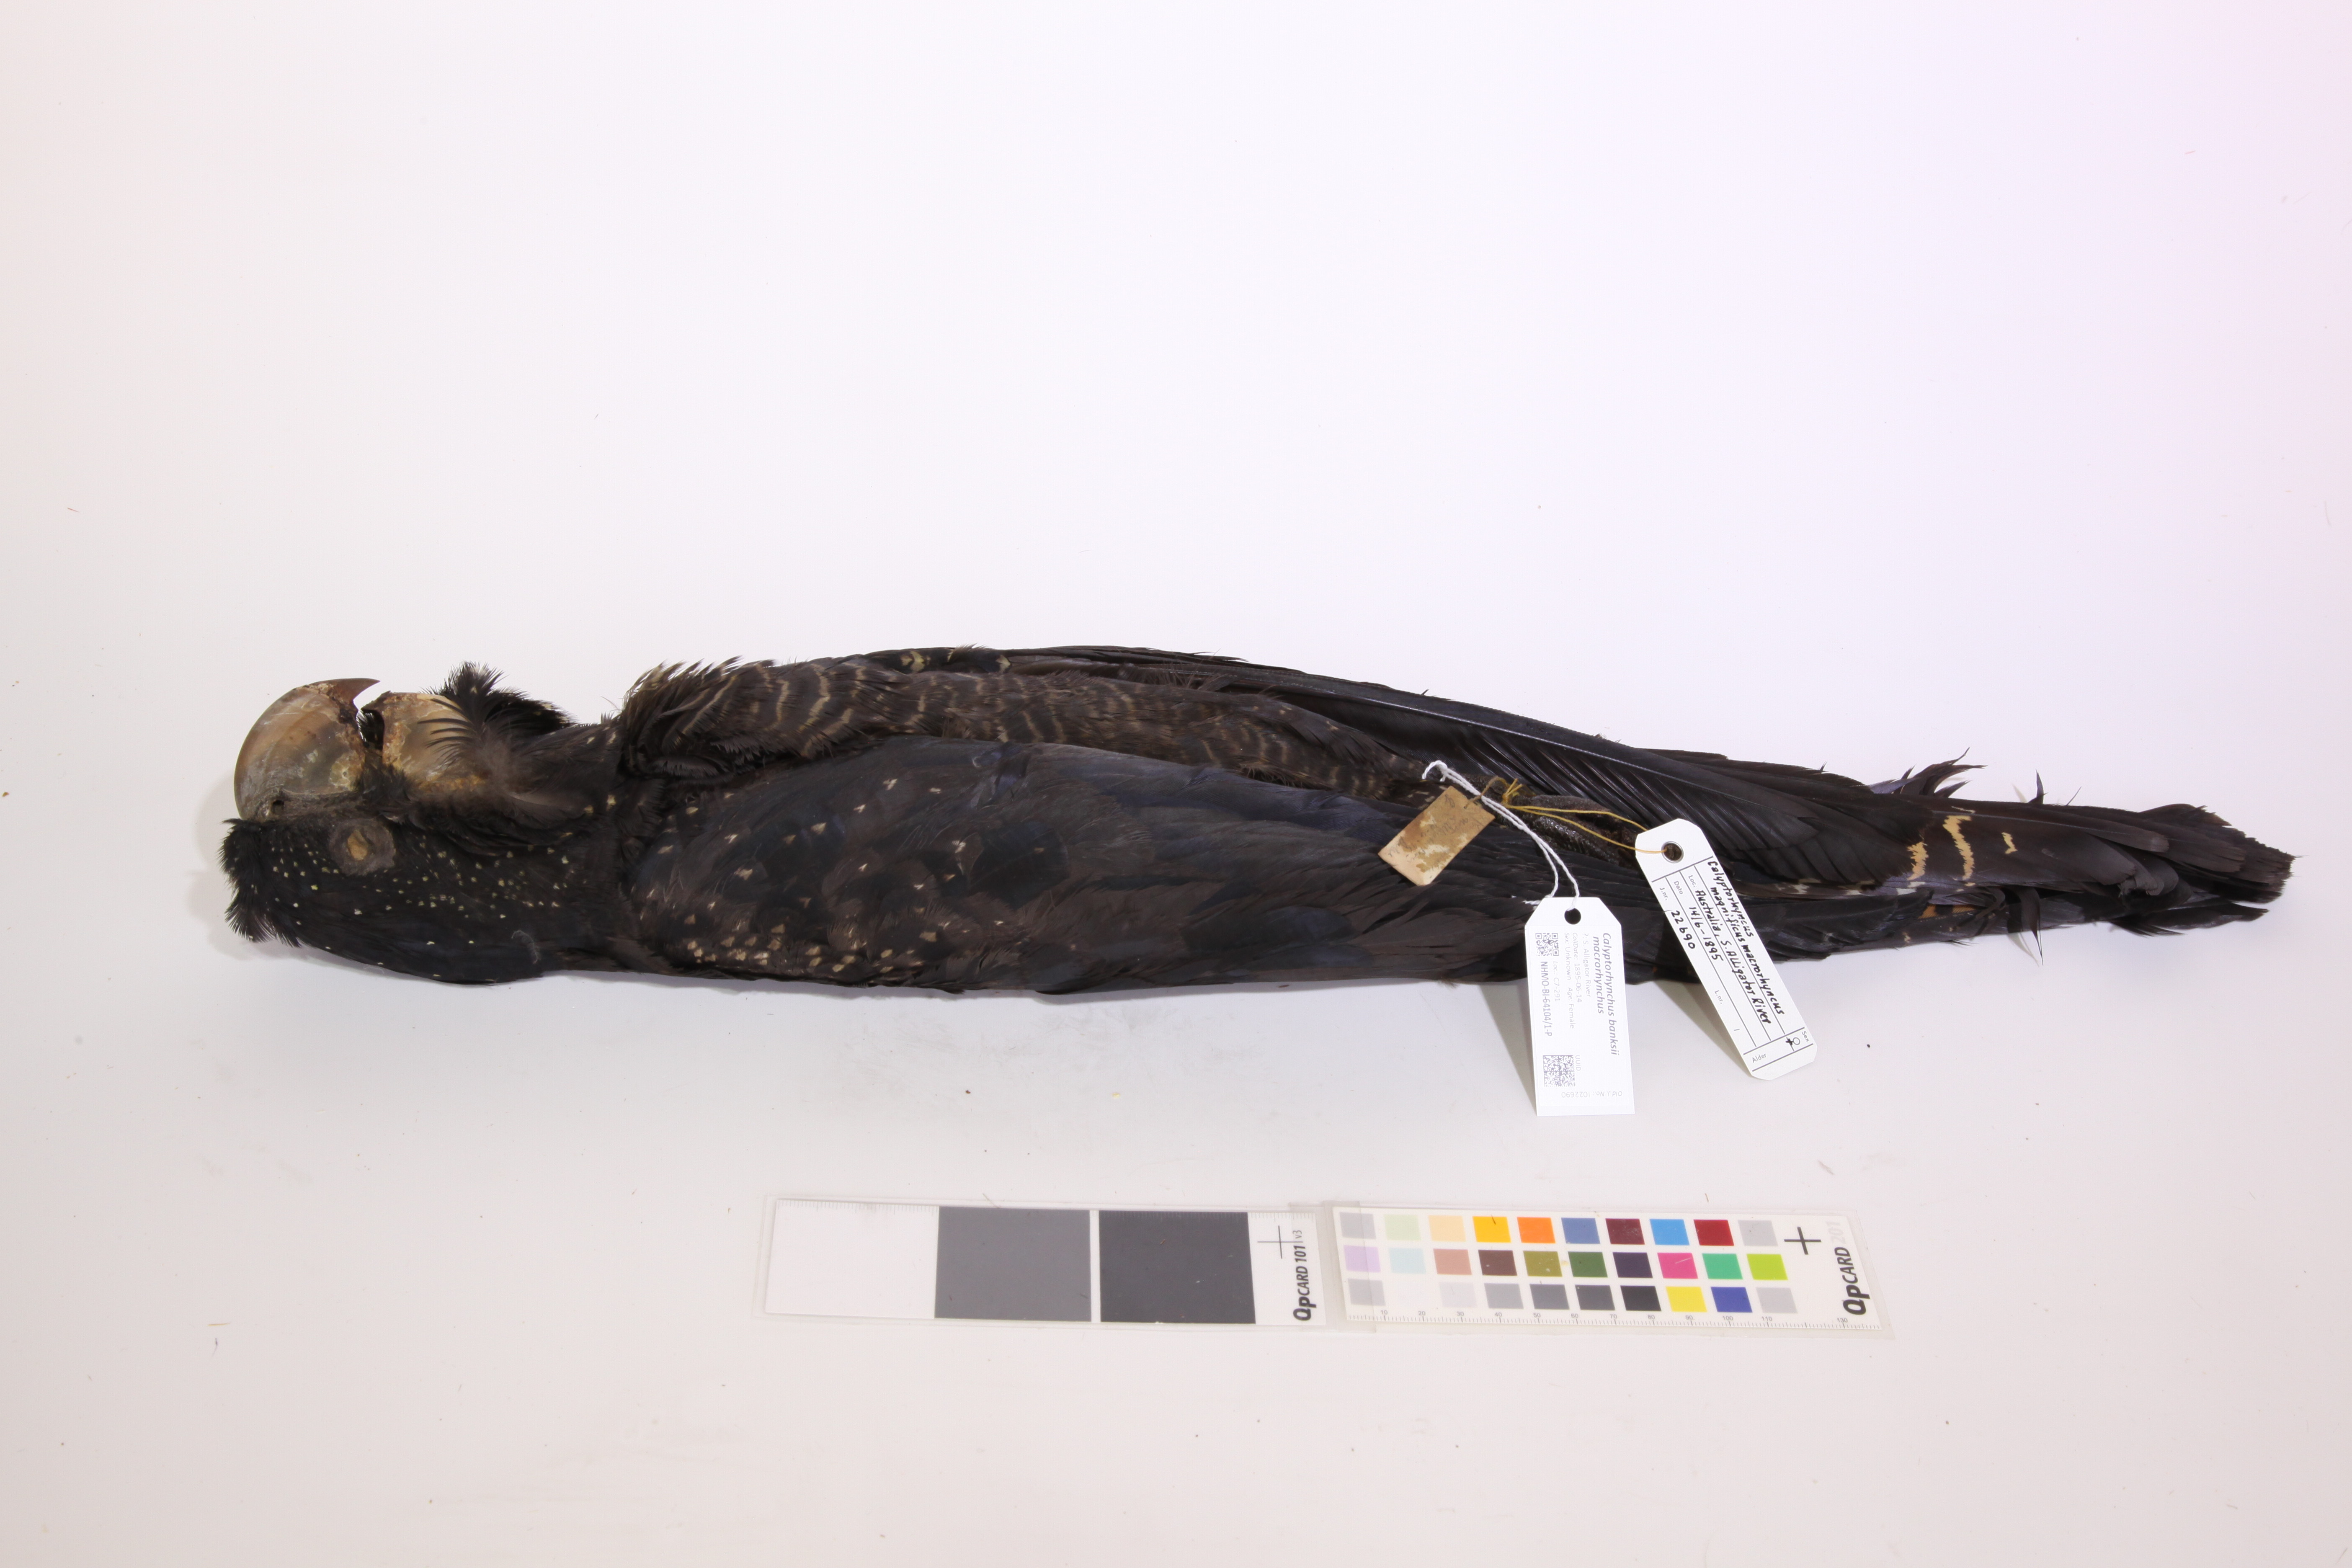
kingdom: Animalia
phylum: Chordata
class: Aves
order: Psittaciformes
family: Psittacidae
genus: Calyptorhynchus
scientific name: Calyptorhynchus banksii
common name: Red-tailed black cockatoo
